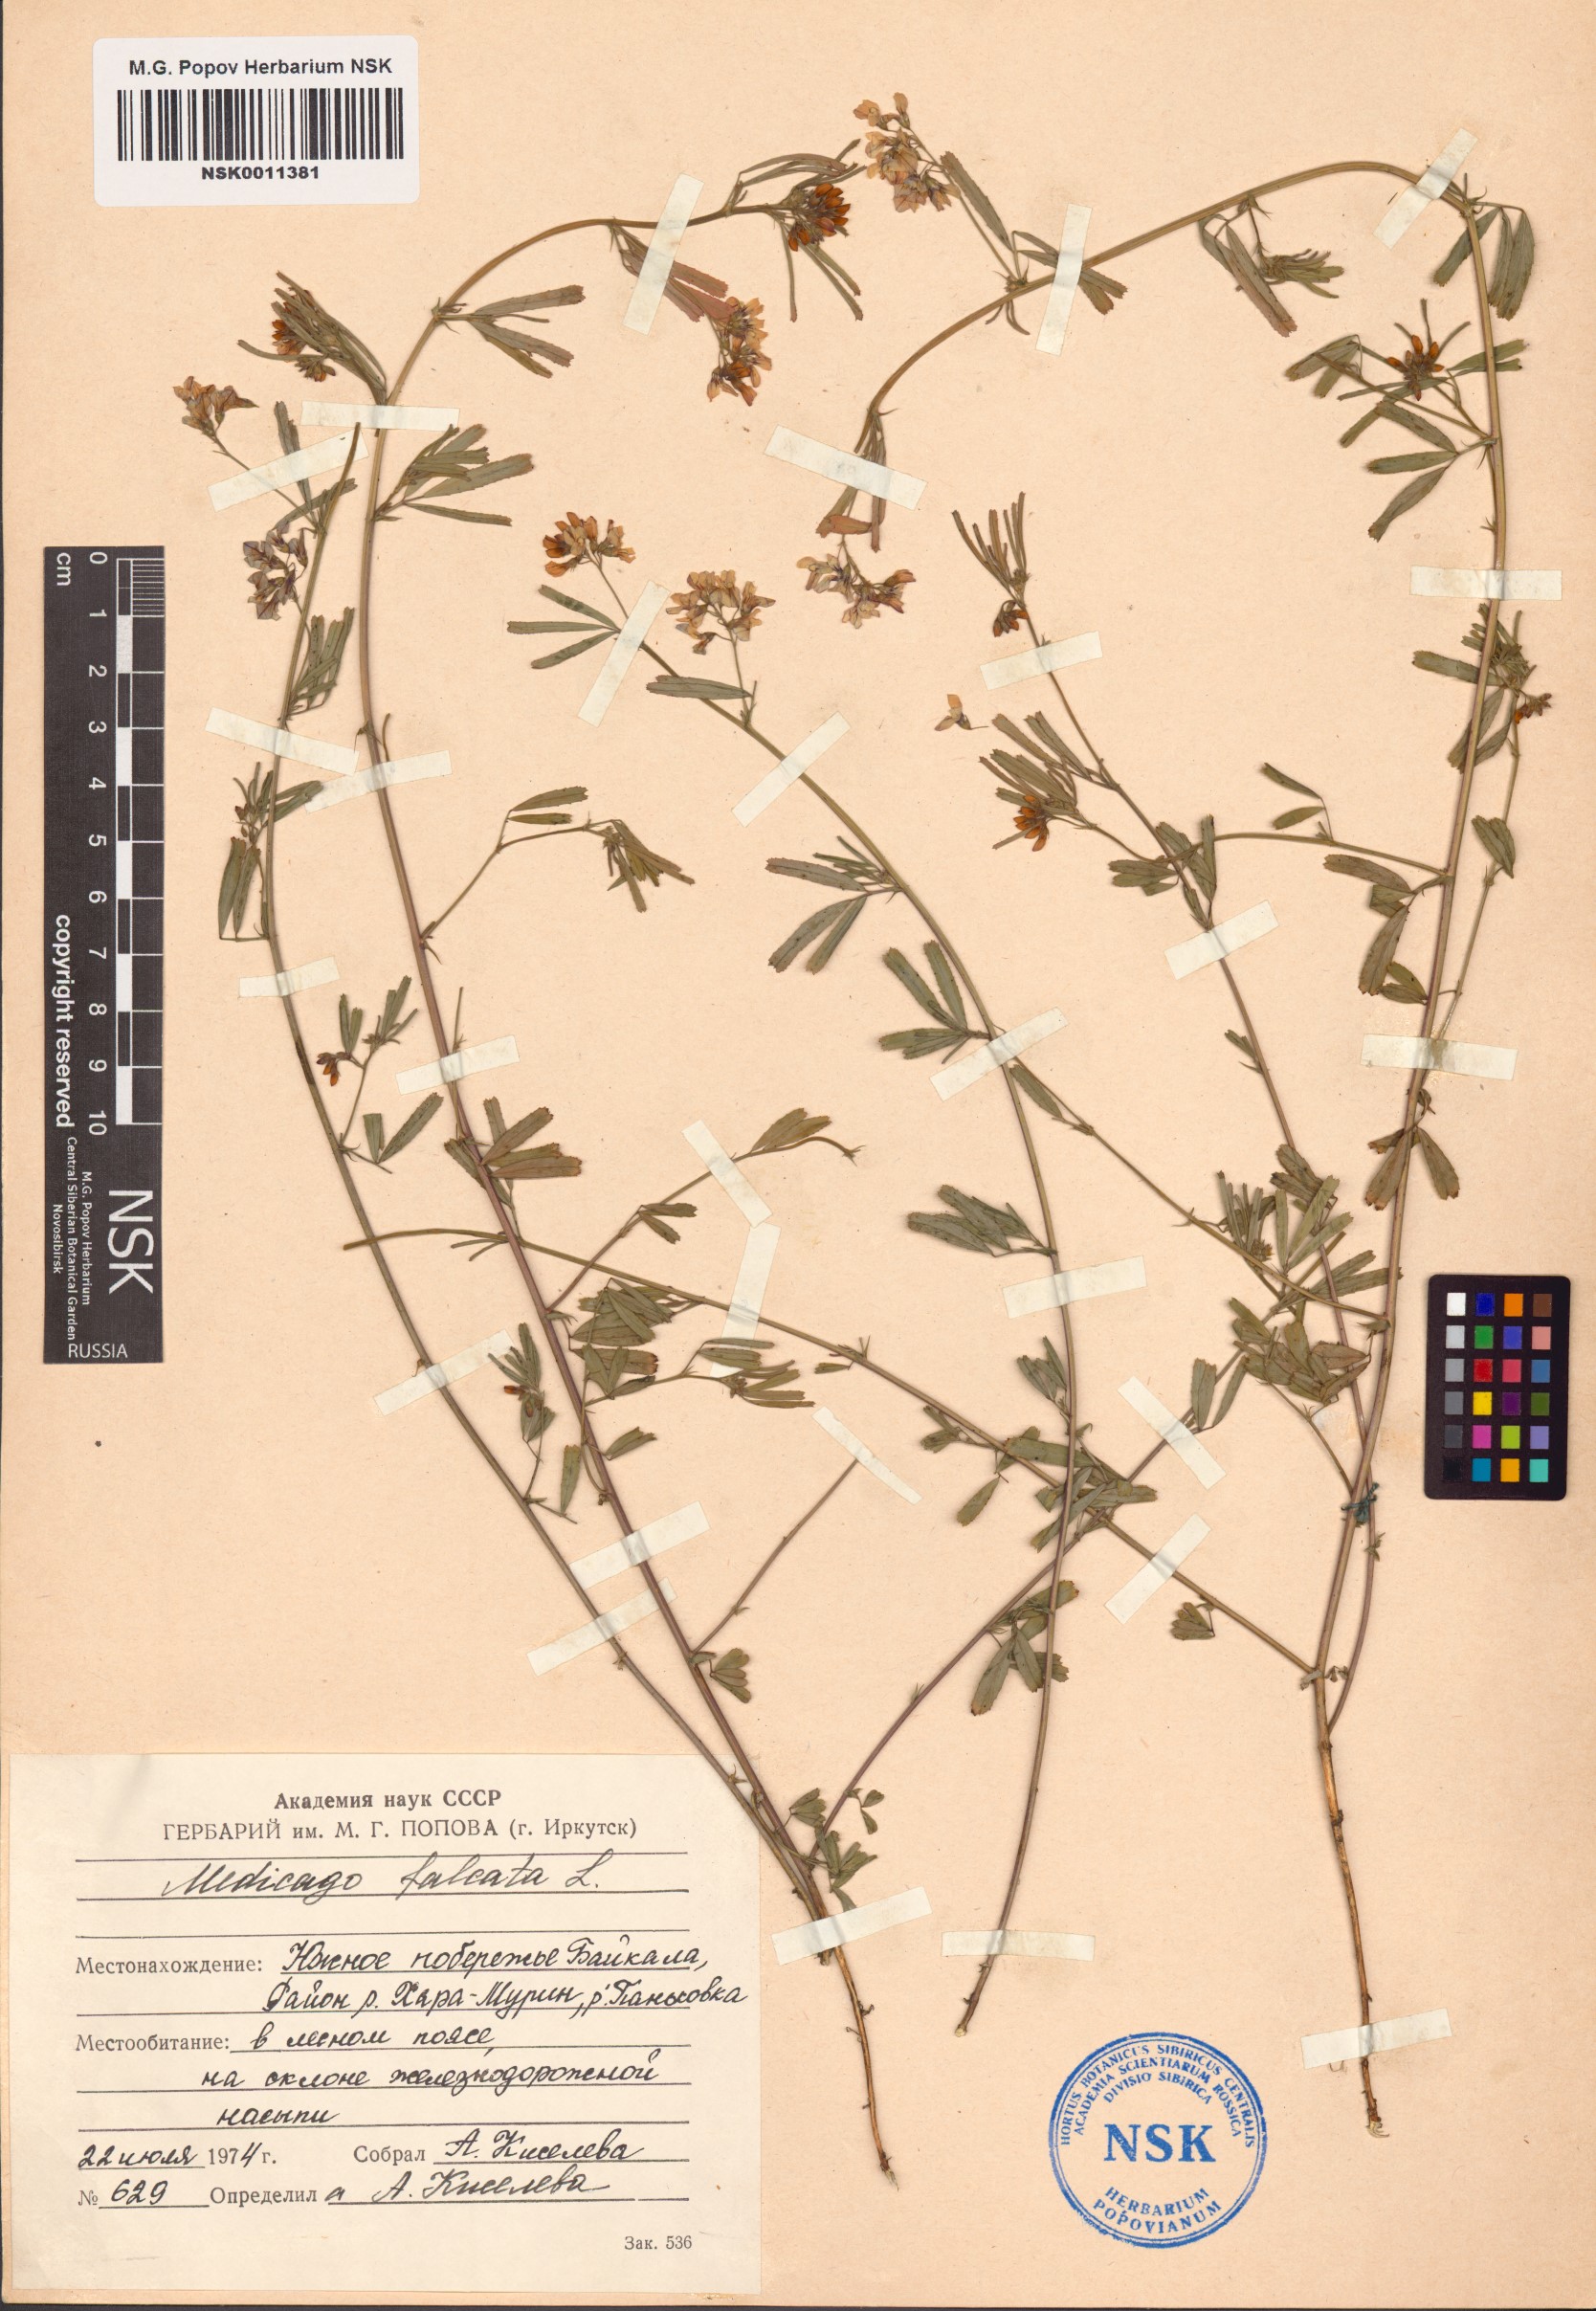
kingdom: Plantae
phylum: Tracheophyta
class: Magnoliopsida
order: Fabales
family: Fabaceae
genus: Medicago
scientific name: Medicago falcata
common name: Sickle medick
